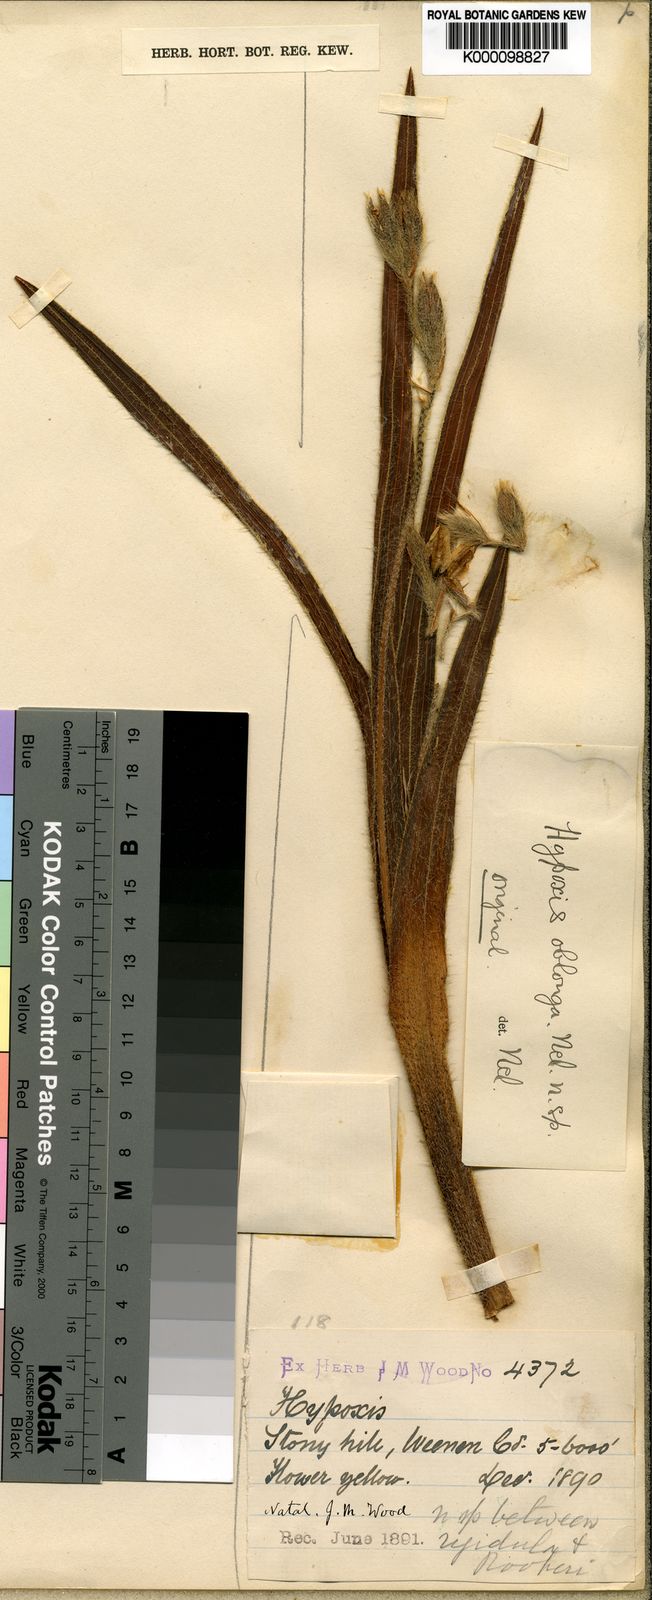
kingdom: Plantae
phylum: Tracheophyta
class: Liliopsida
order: Asparagales
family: Hypoxidaceae
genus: Hypoxis
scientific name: Hypoxis oblonga
